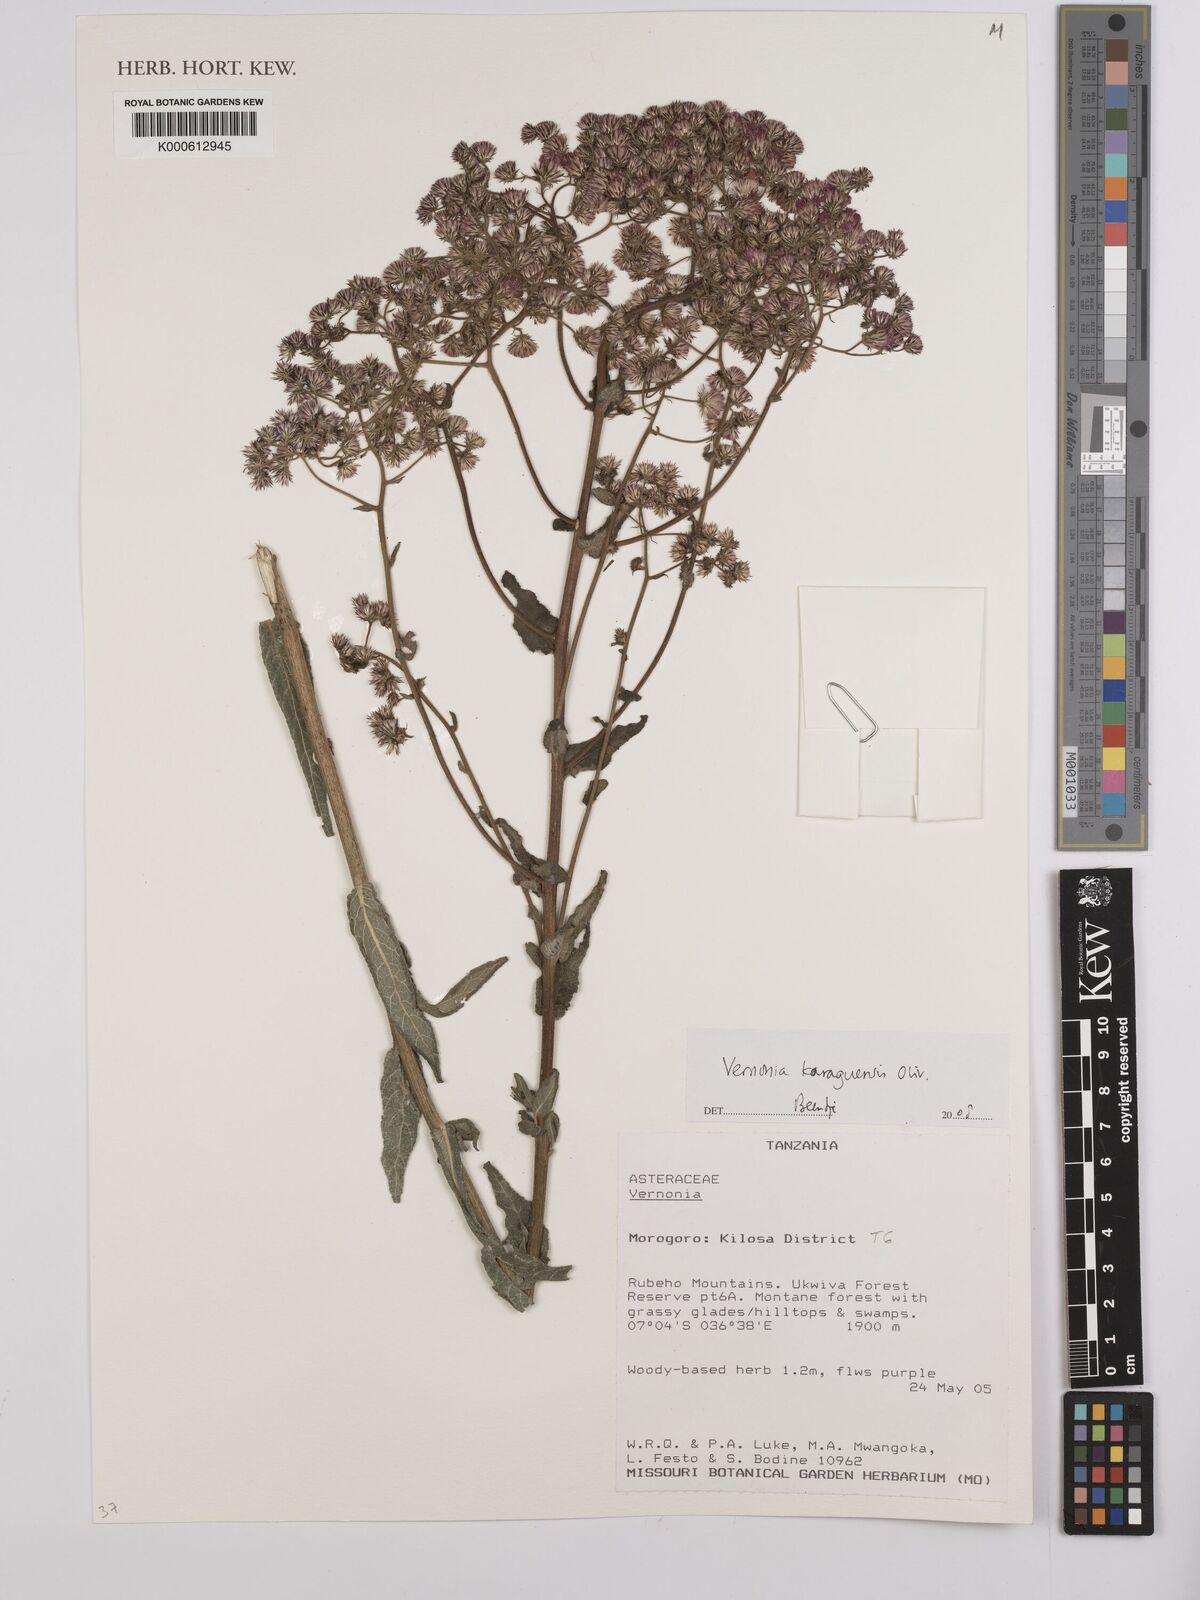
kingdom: Plantae
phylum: Tracheophyta
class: Magnoliopsida
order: Asterales
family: Asteraceae
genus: Orbivestus
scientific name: Orbivestus karaguensis
